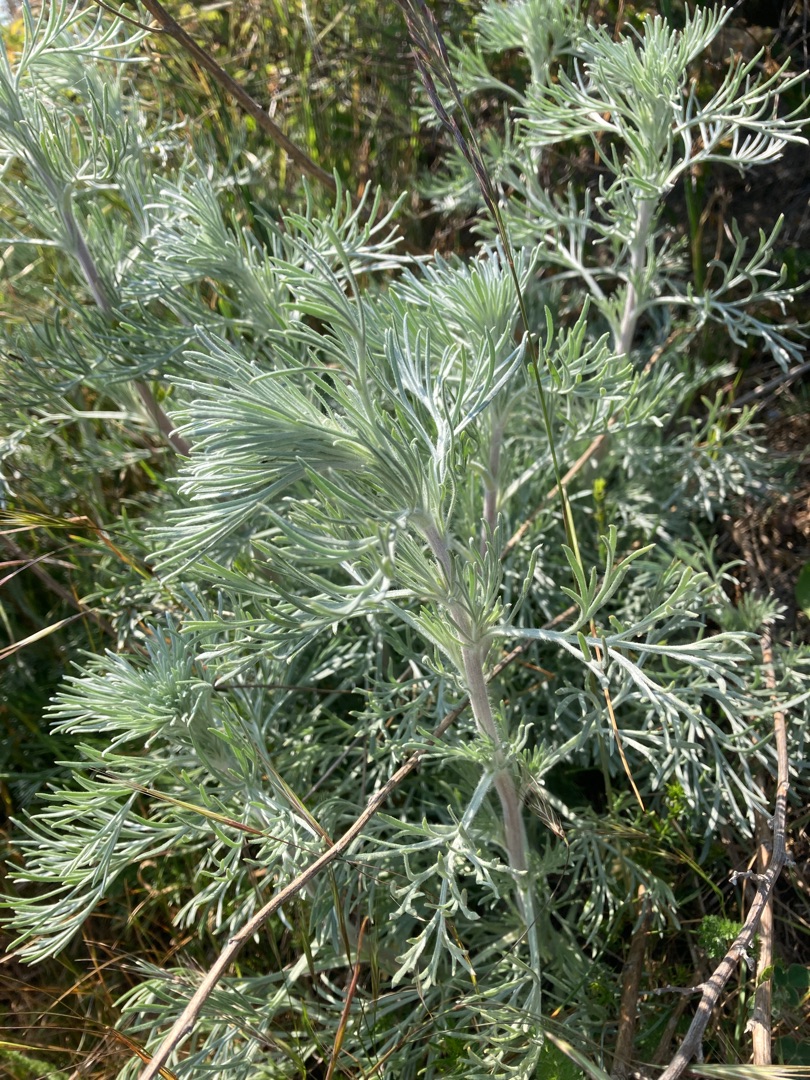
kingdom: Plantae
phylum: Tracheophyta
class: Magnoliopsida
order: Asterales
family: Asteraceae
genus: Artemisia
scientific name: Artemisia maritima
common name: Strandmalurt
